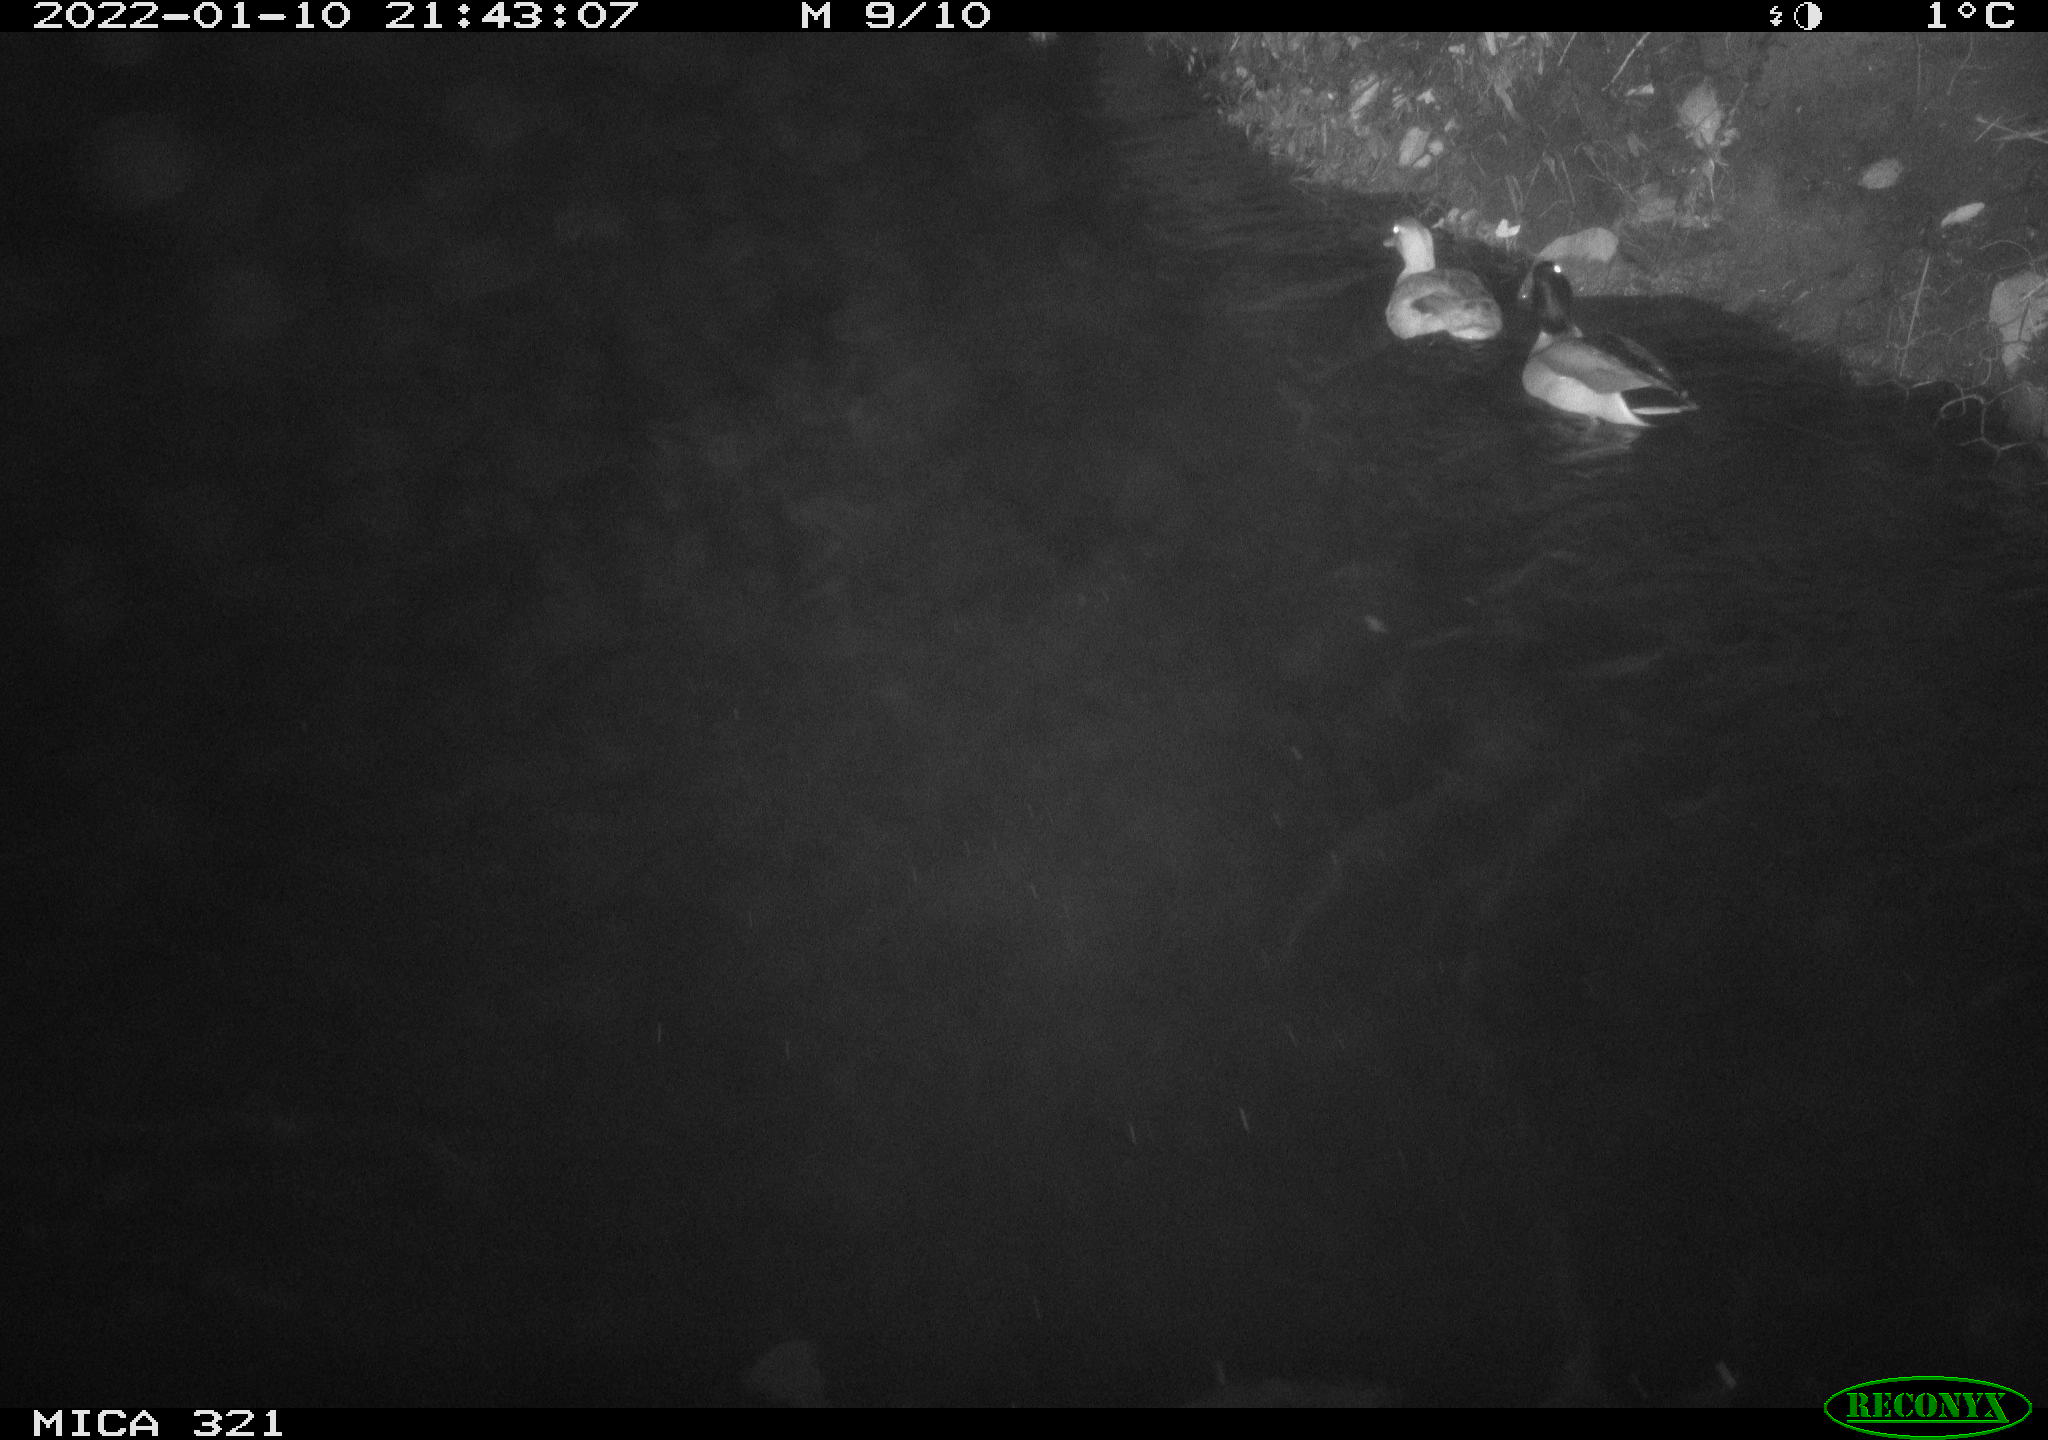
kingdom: Animalia
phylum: Chordata
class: Aves
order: Anseriformes
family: Anatidae
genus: Anas
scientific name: Anas
